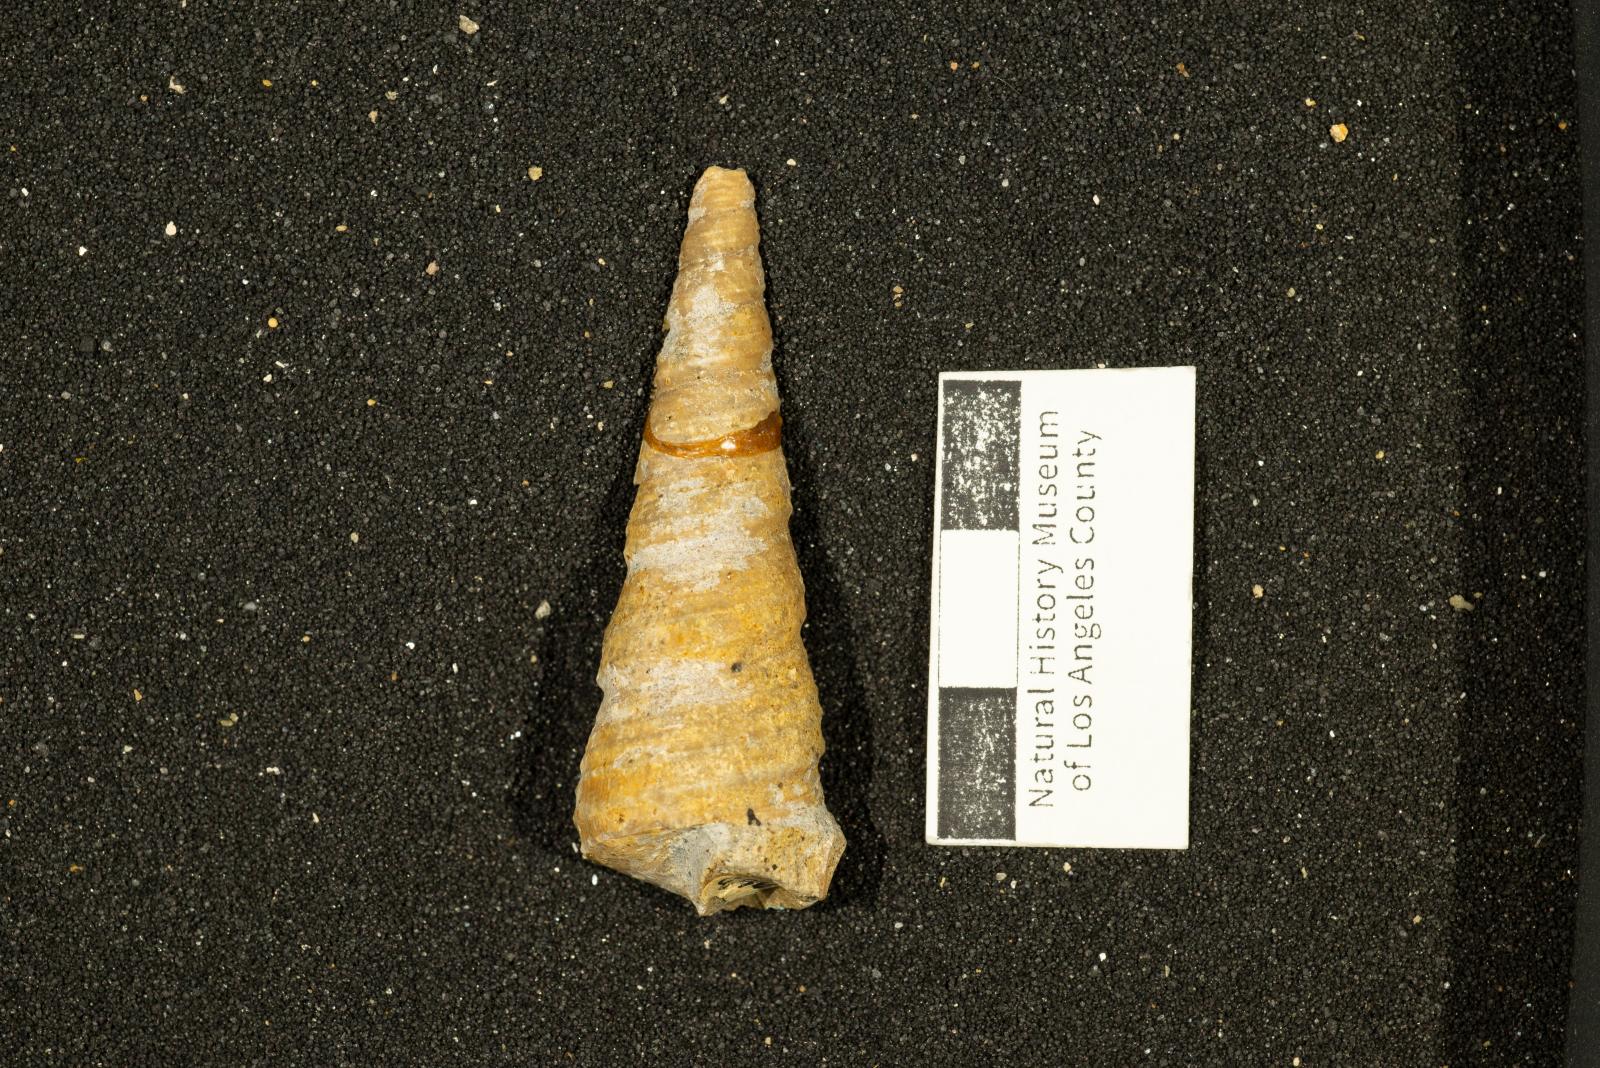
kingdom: Animalia
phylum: Mollusca
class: Gastropoda
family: Turritellidae
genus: Turritella
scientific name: Turritella chicoensis
